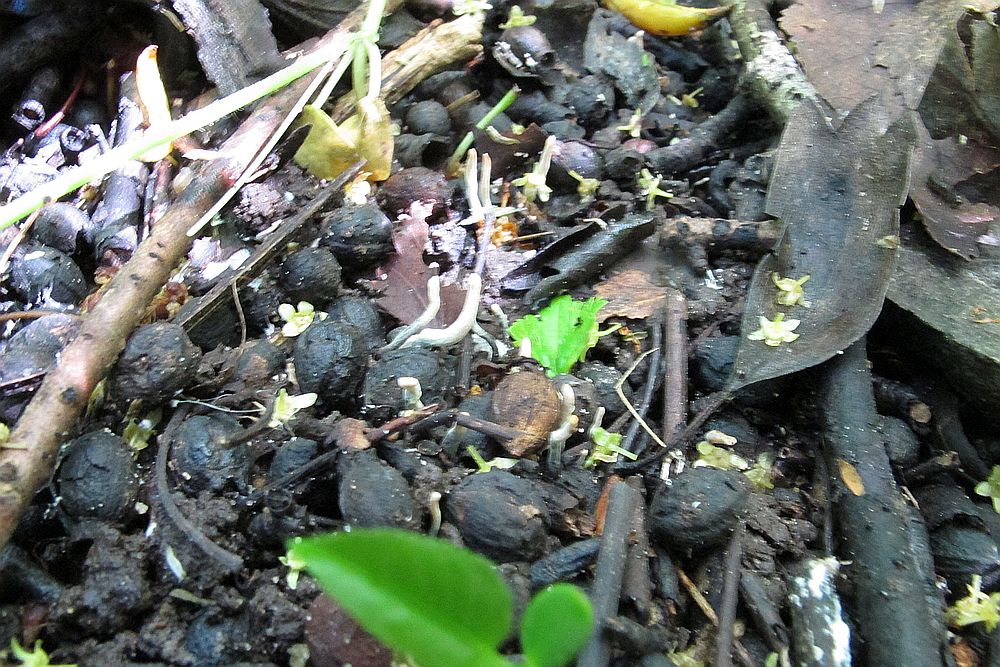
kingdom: Fungi
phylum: Ascomycota
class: Sordariomycetes
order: Xylariales
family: Xylariaceae
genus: Xylaria
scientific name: Xylaria oxyacanthae
